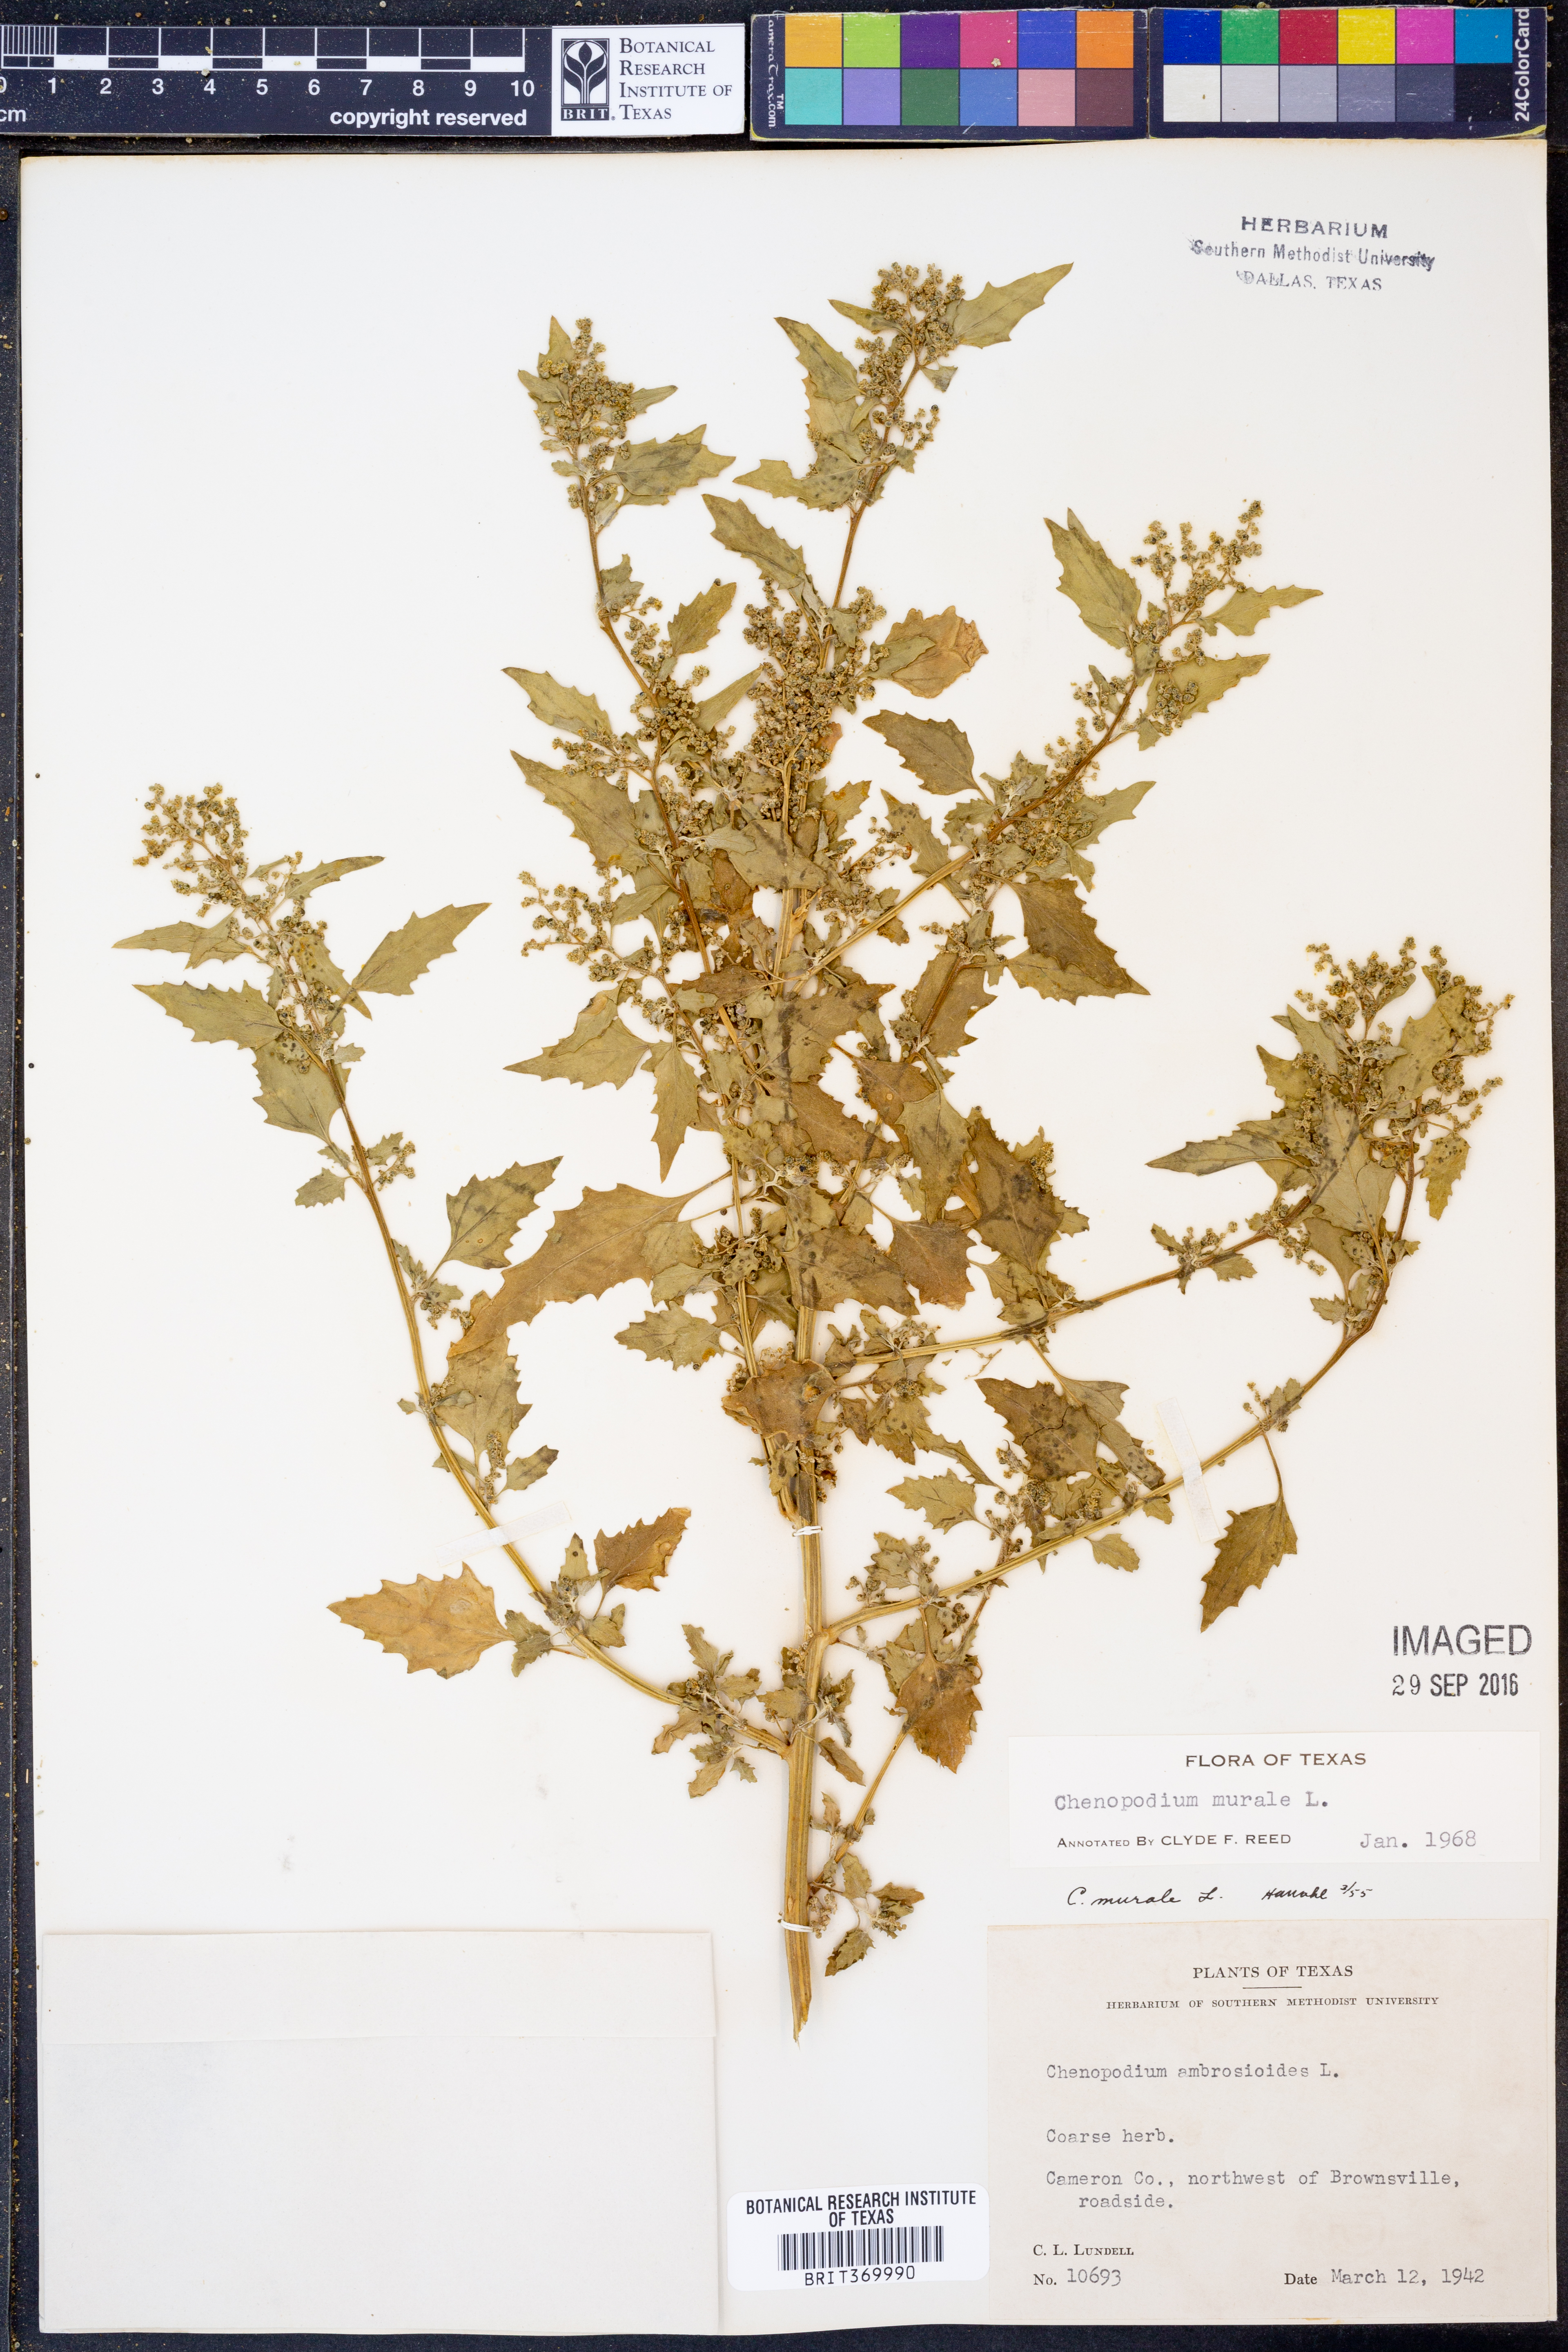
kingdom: Plantae
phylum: Tracheophyta
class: Magnoliopsida
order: Caryophyllales
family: Amaranthaceae
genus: Chenopodiastrum
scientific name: Chenopodiastrum murale
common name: Sowbane
